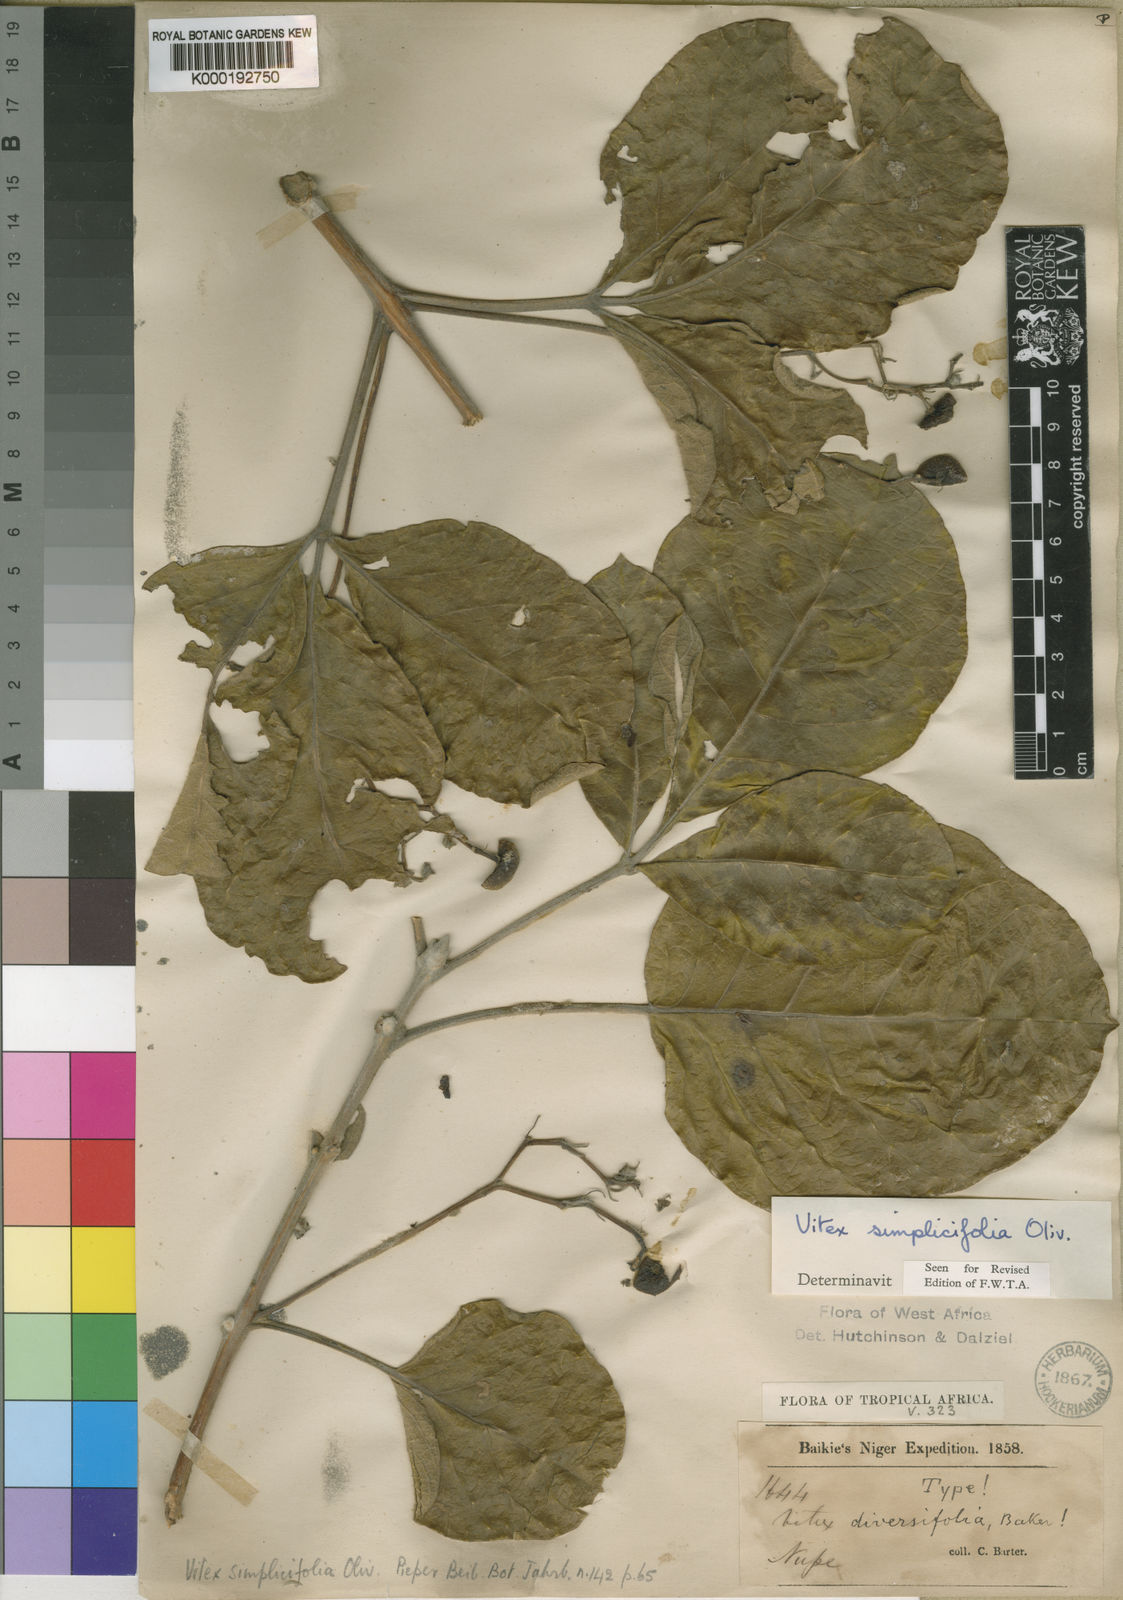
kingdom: Plantae
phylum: Tracheophyta
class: Magnoliopsida
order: Lamiales
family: Lamiaceae
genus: Vitex
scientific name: Vitex madiensis
